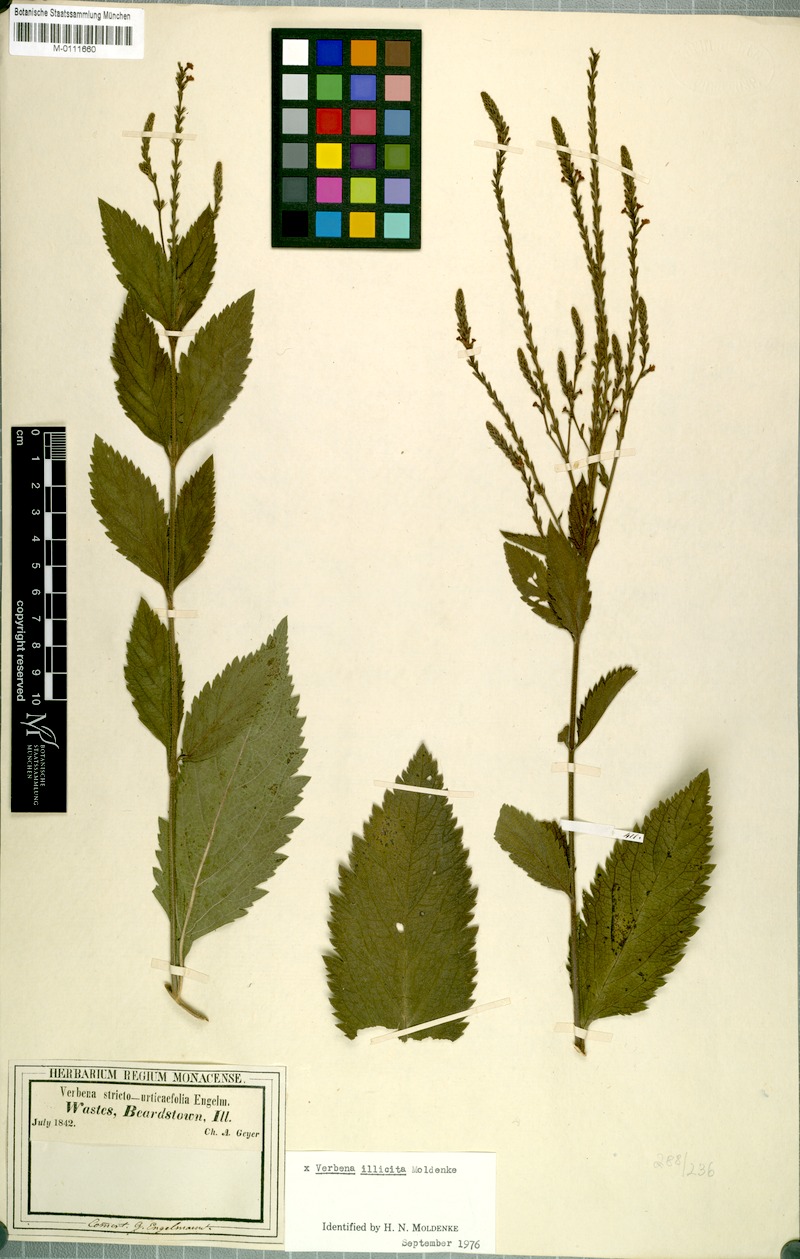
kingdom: Plantae
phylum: Tracheophyta
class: Magnoliopsida
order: Lamiales
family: Verbenaceae
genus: Verbena
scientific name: Verbena illicita
